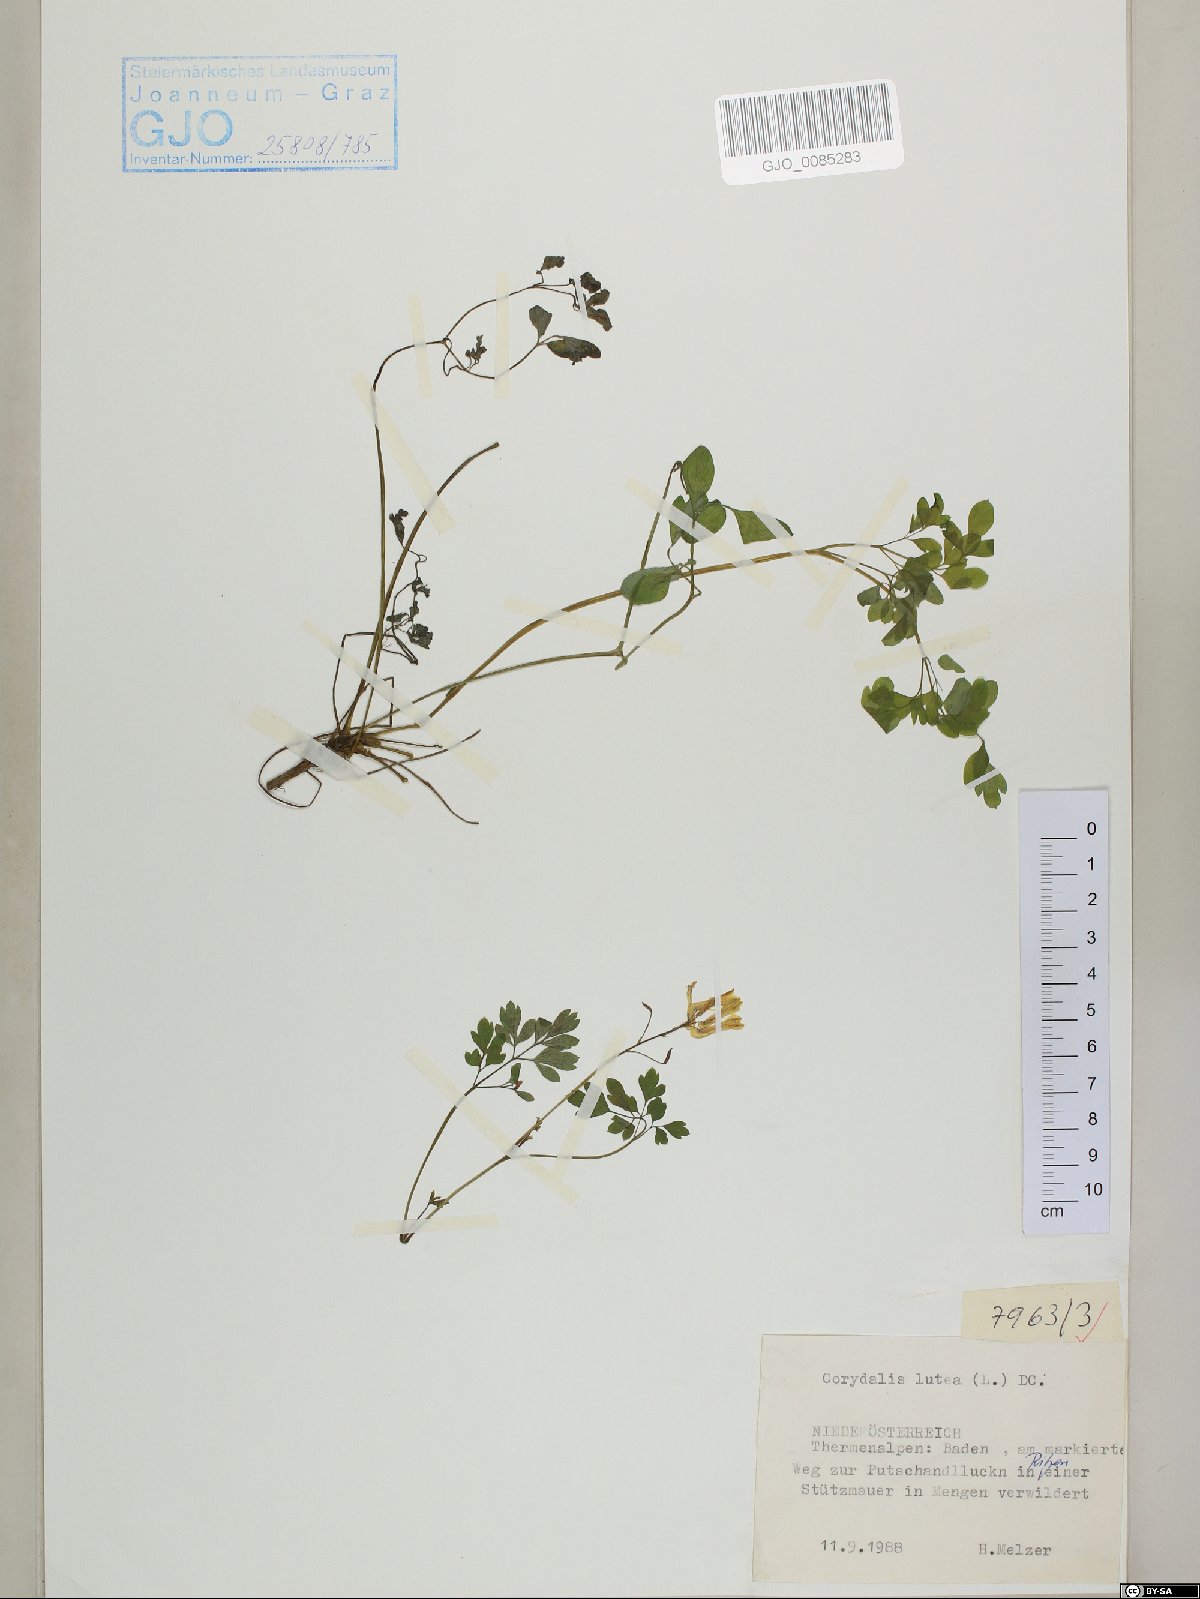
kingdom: Plantae
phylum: Tracheophyta
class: Magnoliopsida
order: Ranunculales
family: Papaveraceae
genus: Pseudofumaria
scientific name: Pseudofumaria lutea
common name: Yellow corydalis
